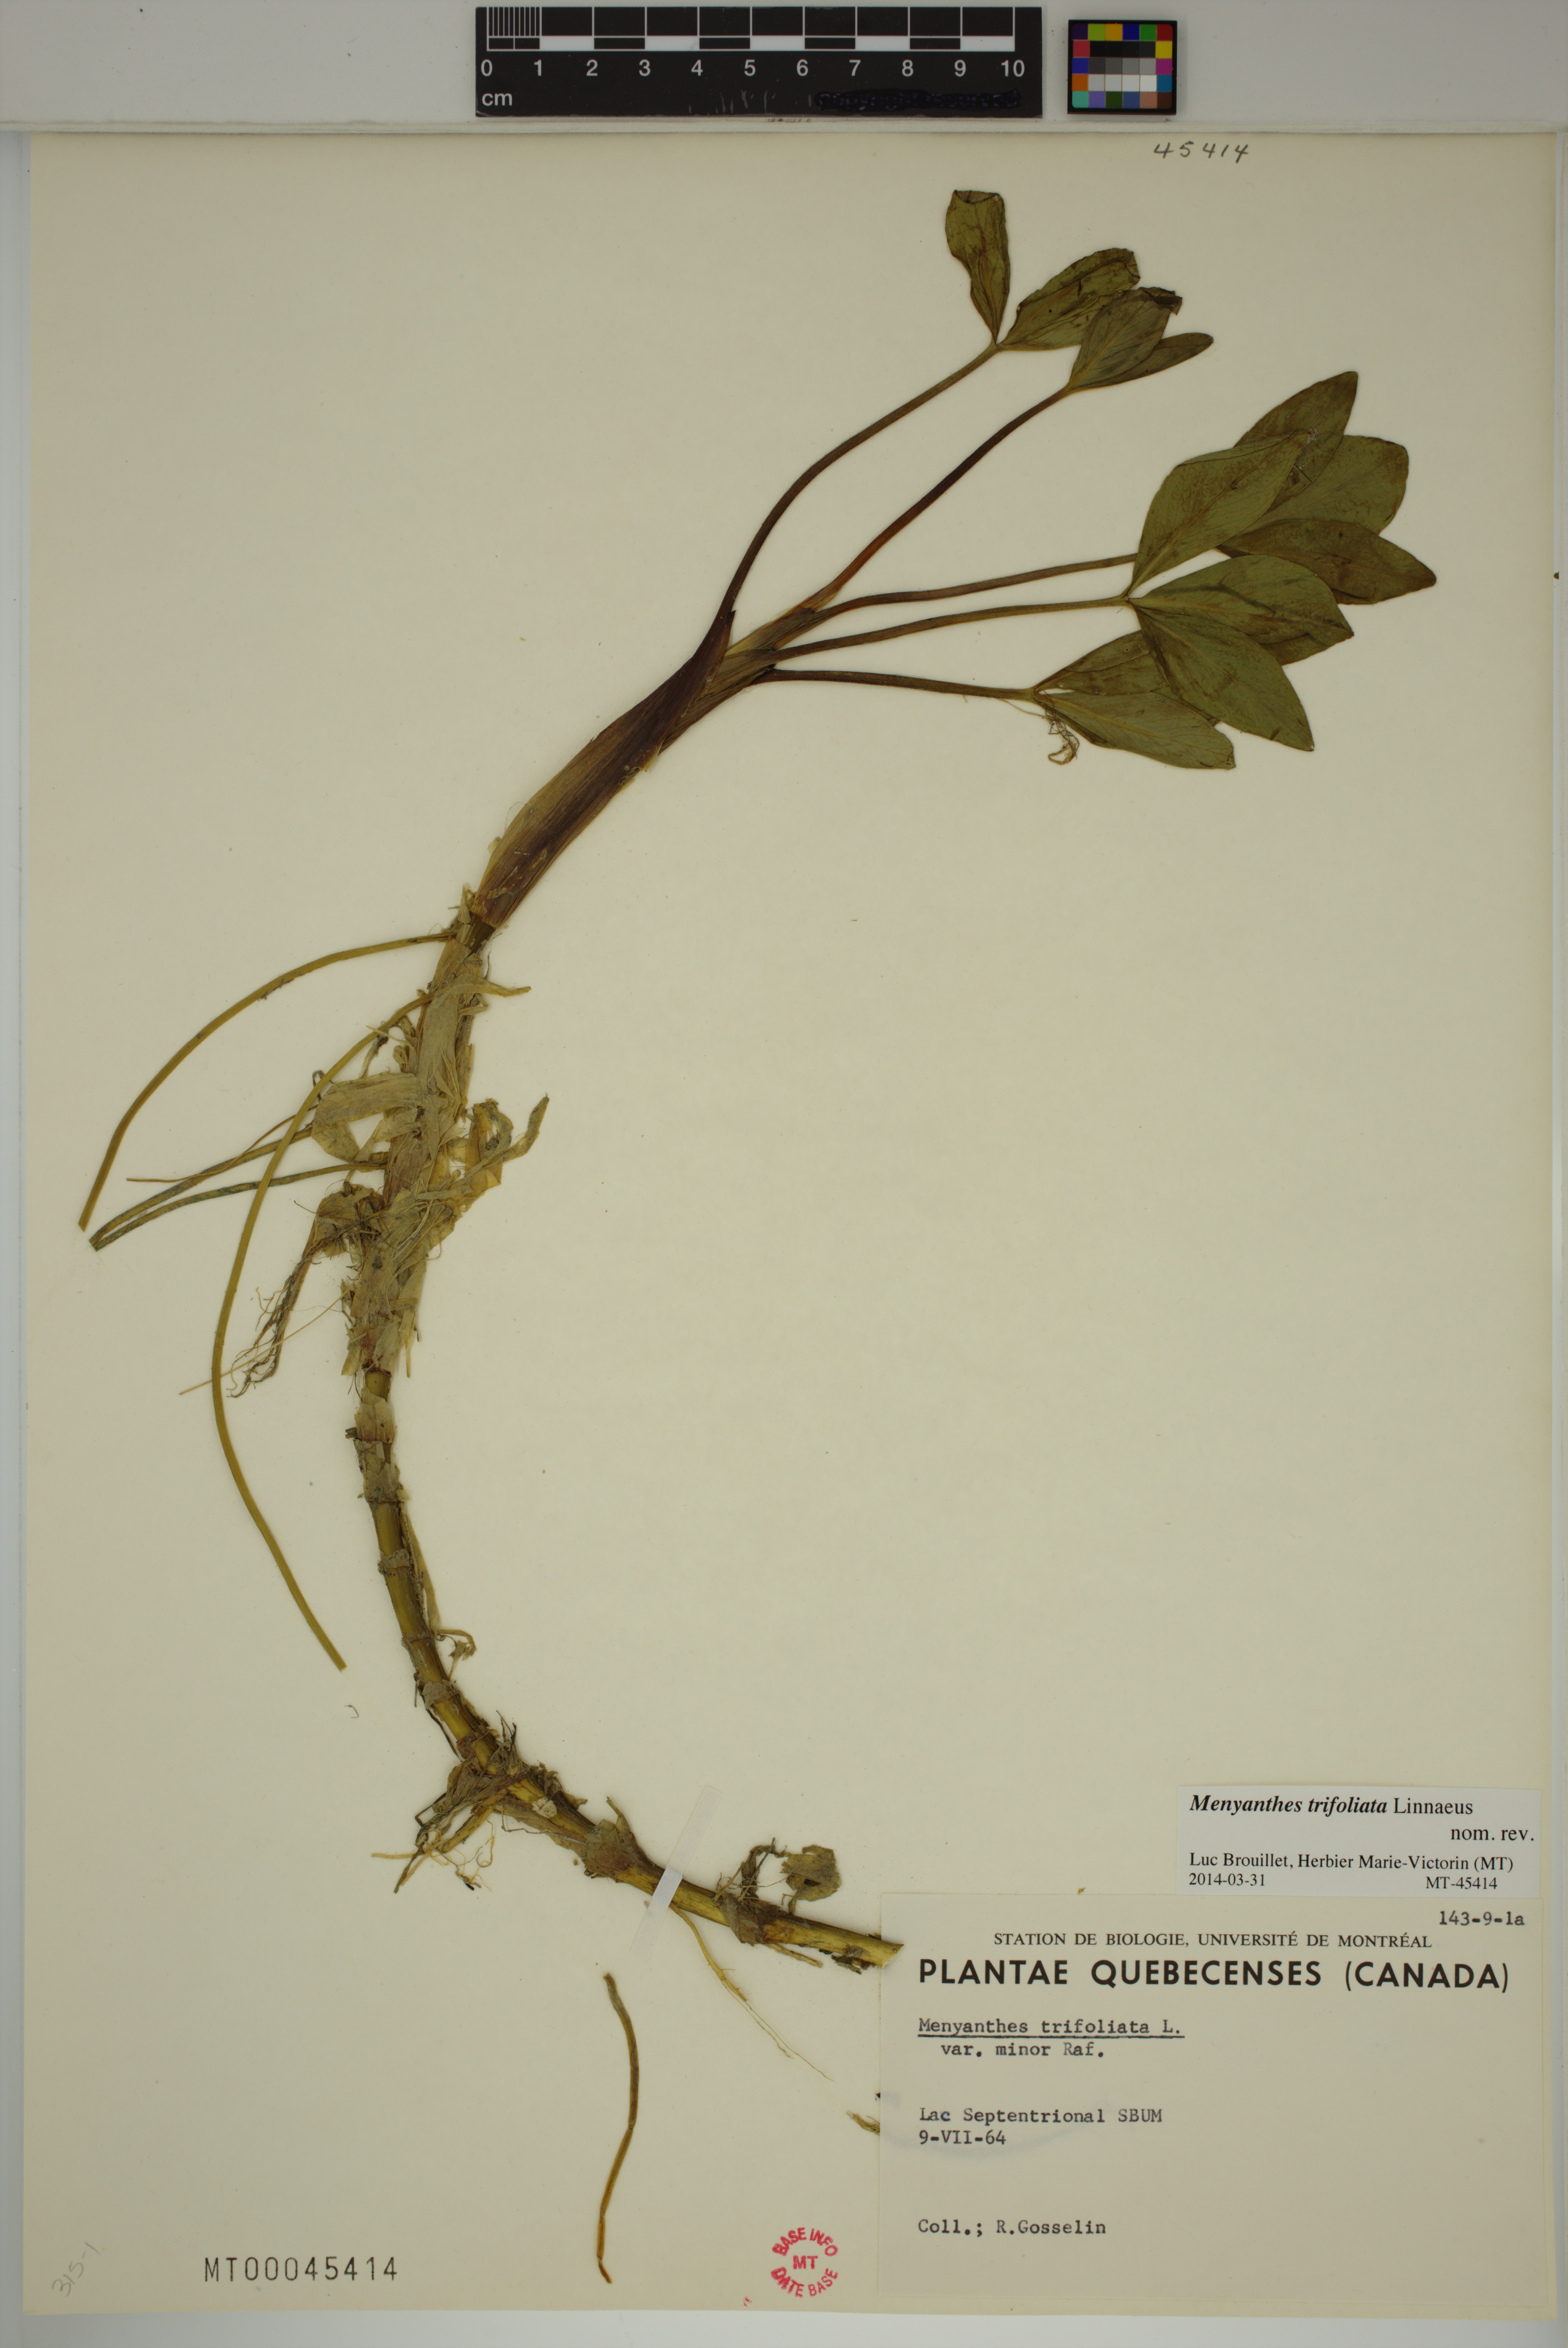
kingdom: Plantae
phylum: Tracheophyta
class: Magnoliopsida
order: Asterales
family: Menyanthaceae
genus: Menyanthes
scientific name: Menyanthes trifoliata
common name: Bogbean
